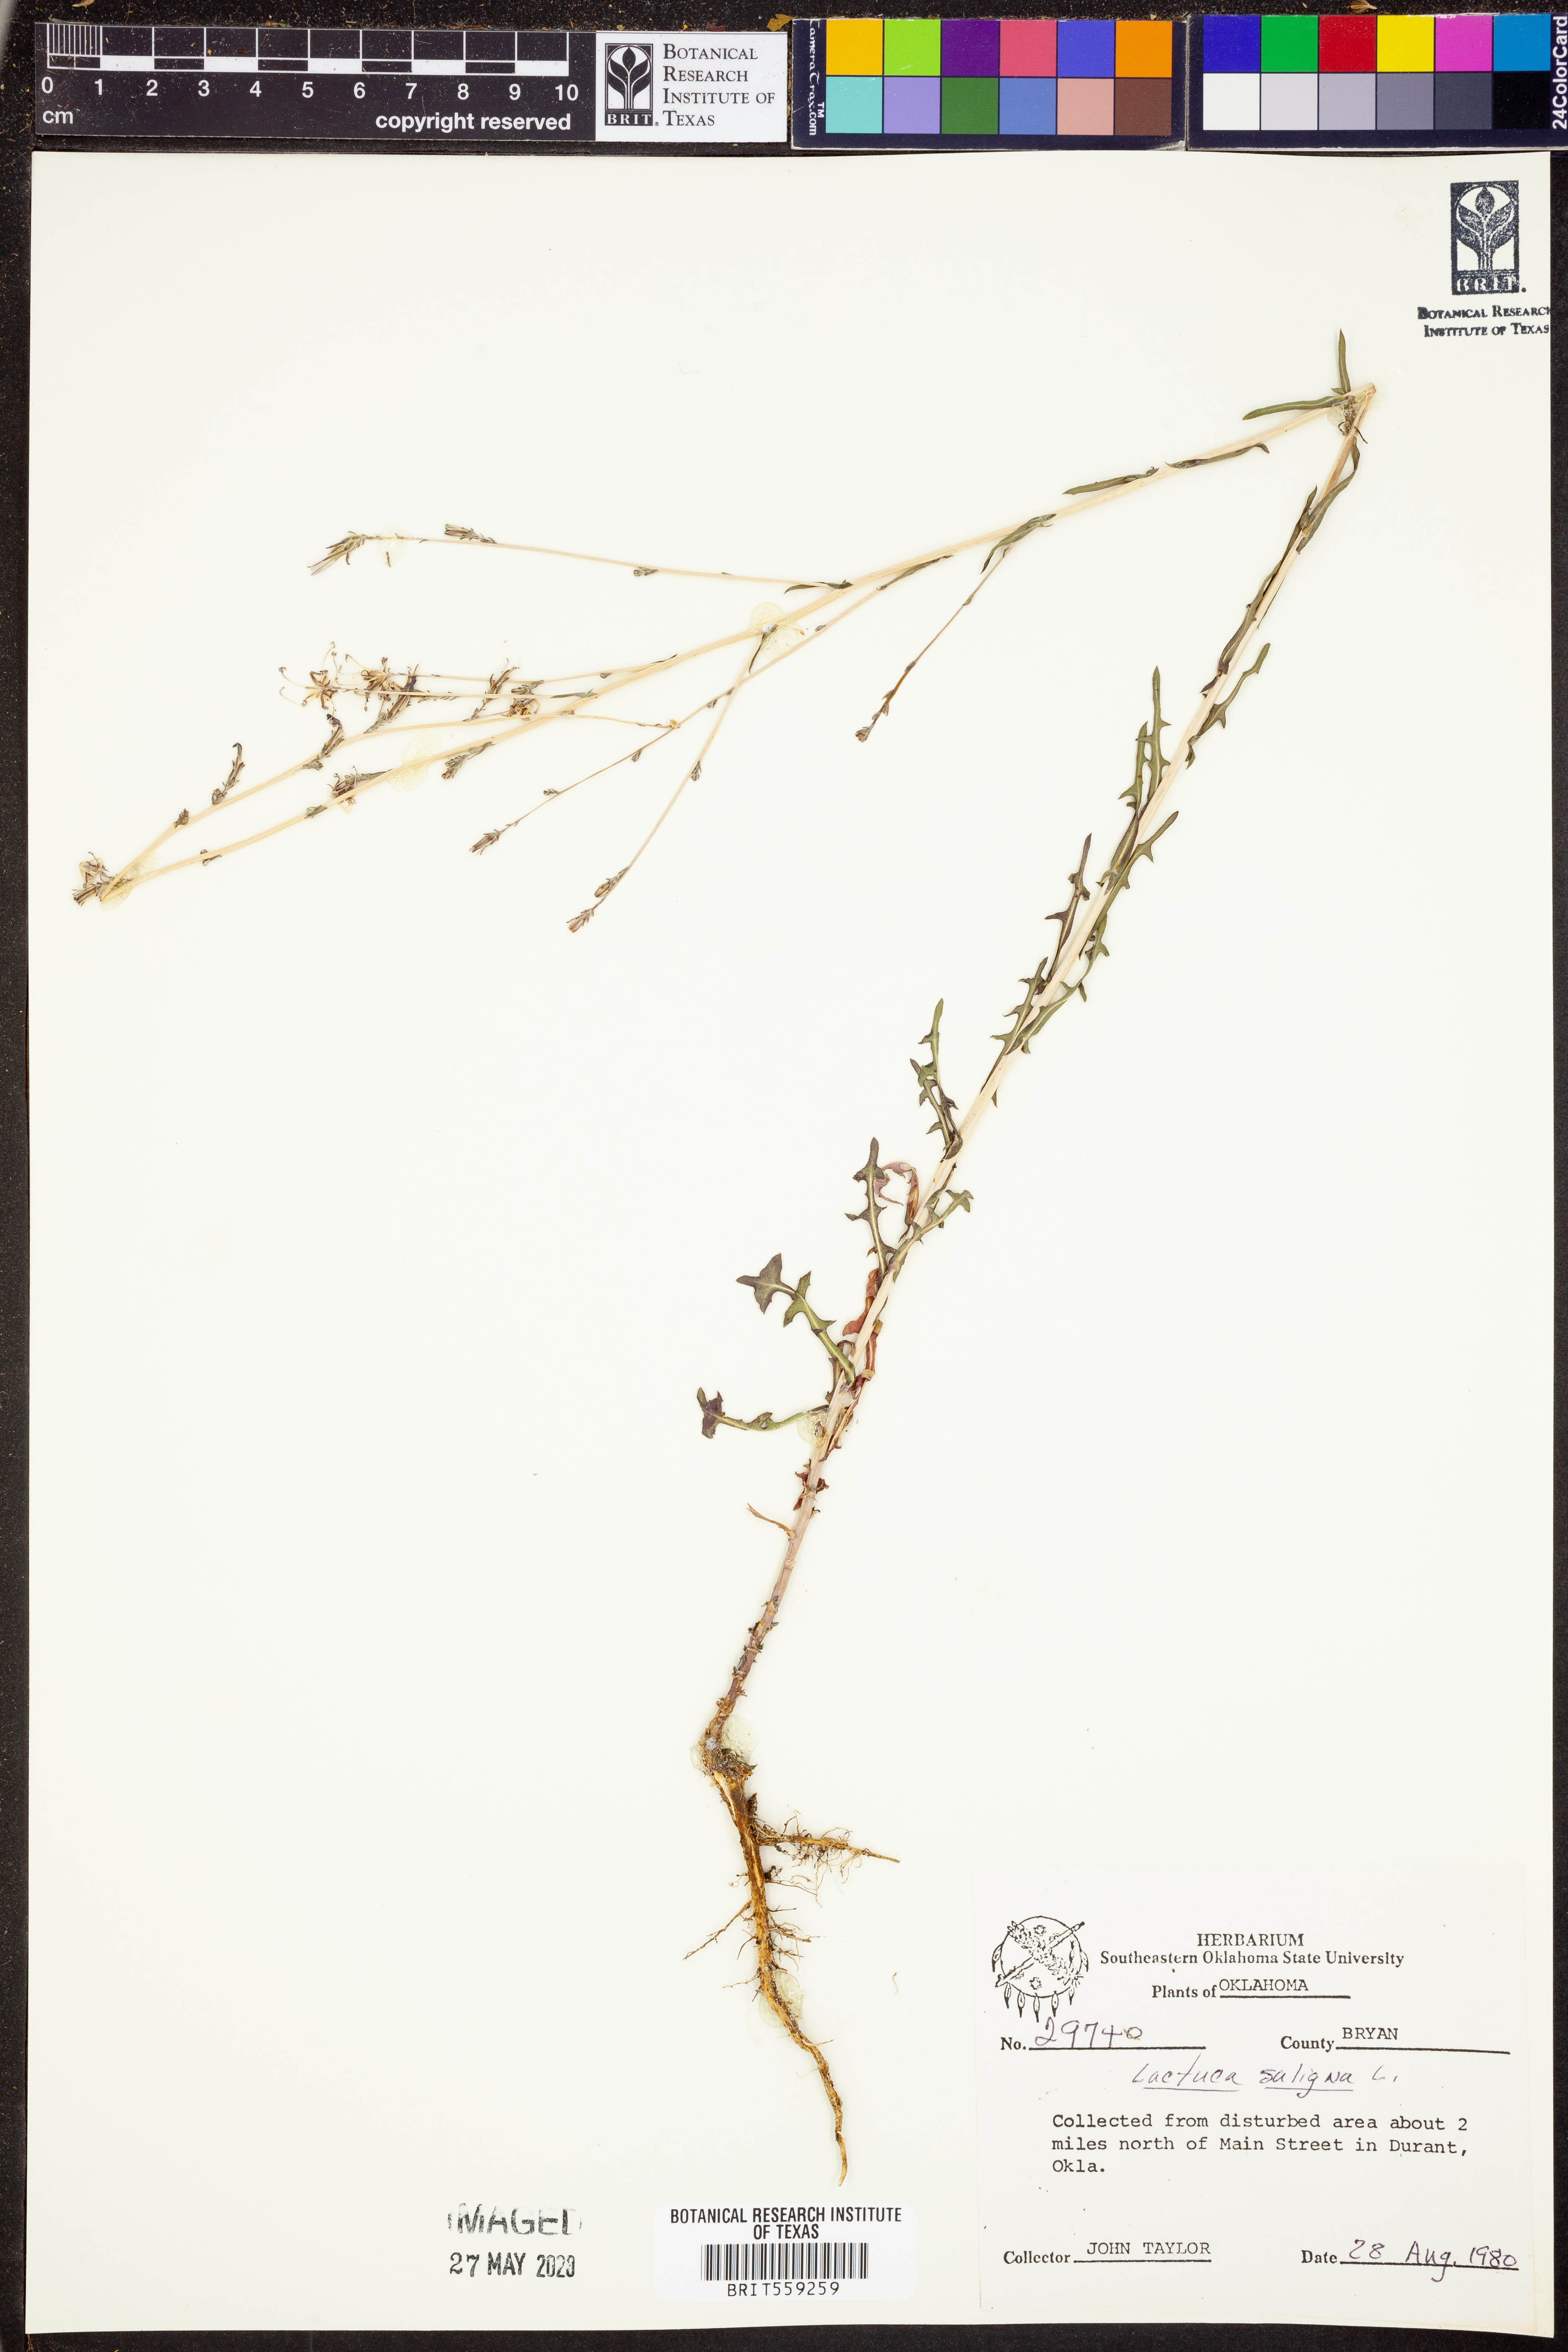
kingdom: Plantae
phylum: Tracheophyta
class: Magnoliopsida
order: Asterales
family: Asteraceae
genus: Lactuca
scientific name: Lactuca saligna
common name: Wild lettuce
